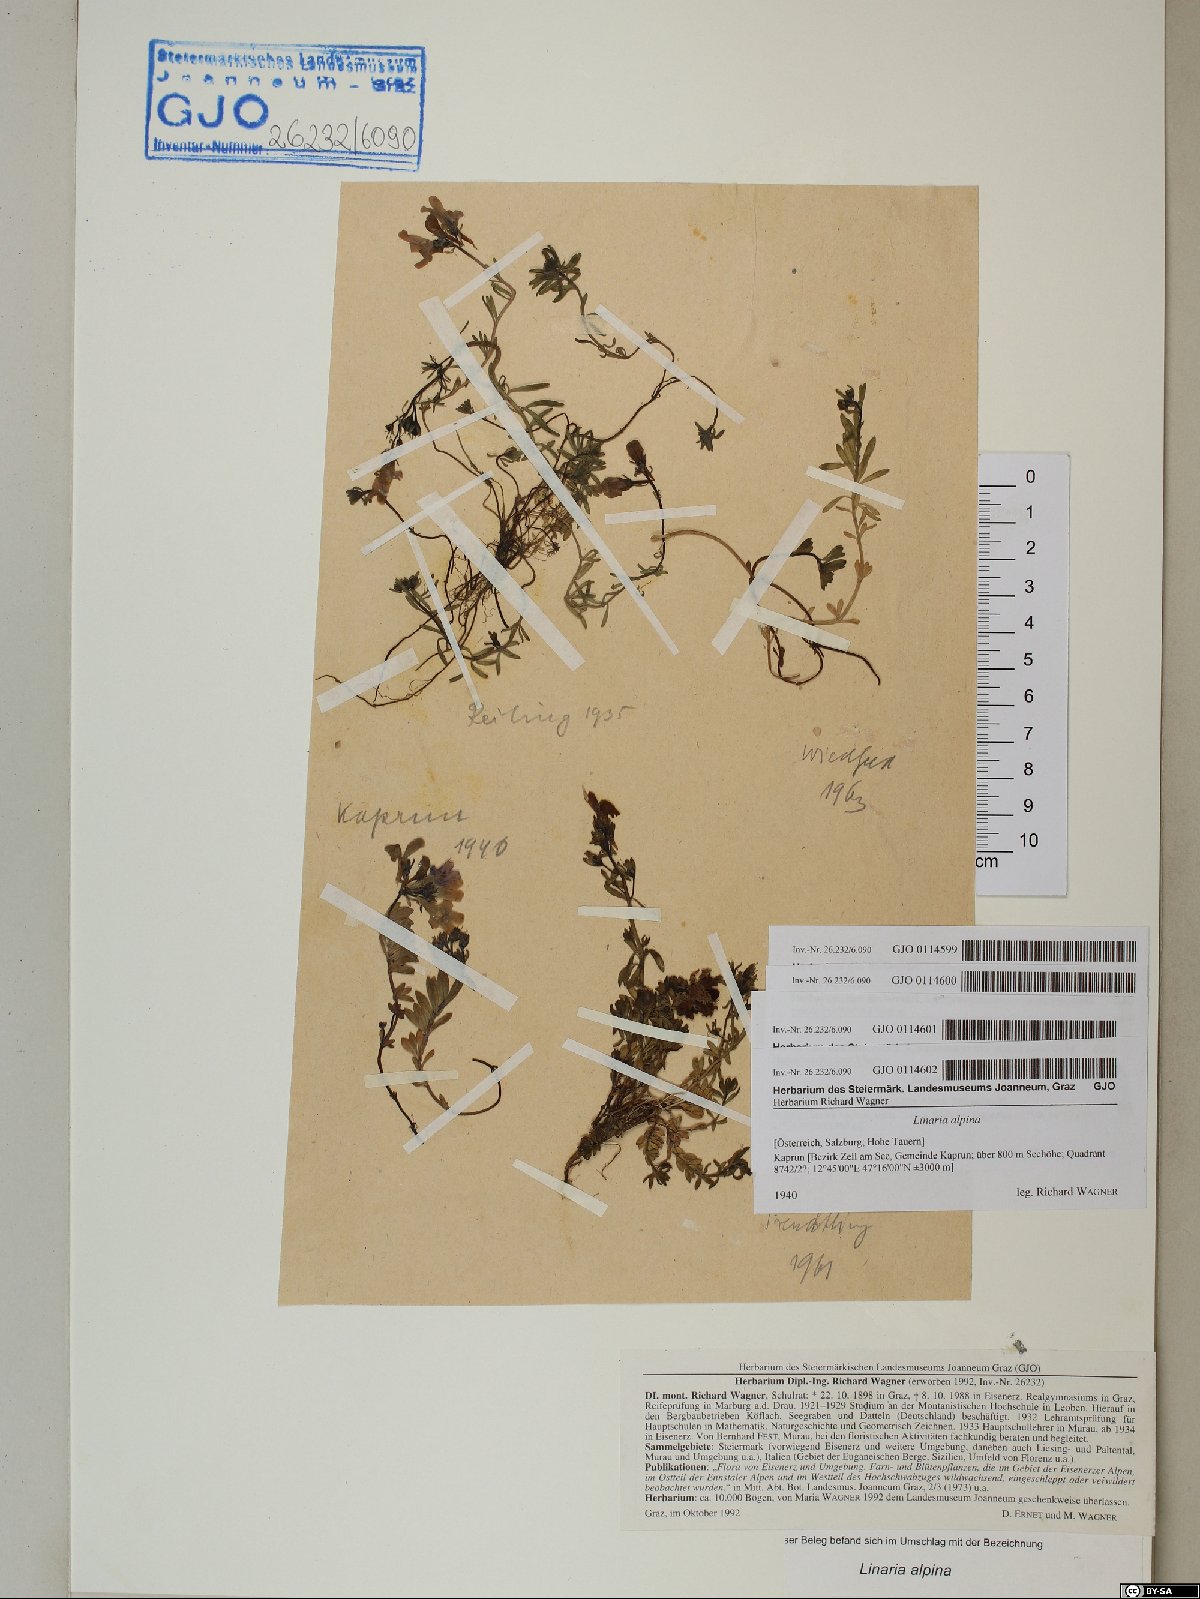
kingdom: Plantae
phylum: Tracheophyta
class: Magnoliopsida
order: Lamiales
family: Plantaginaceae
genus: Linaria
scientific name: Linaria alpina
